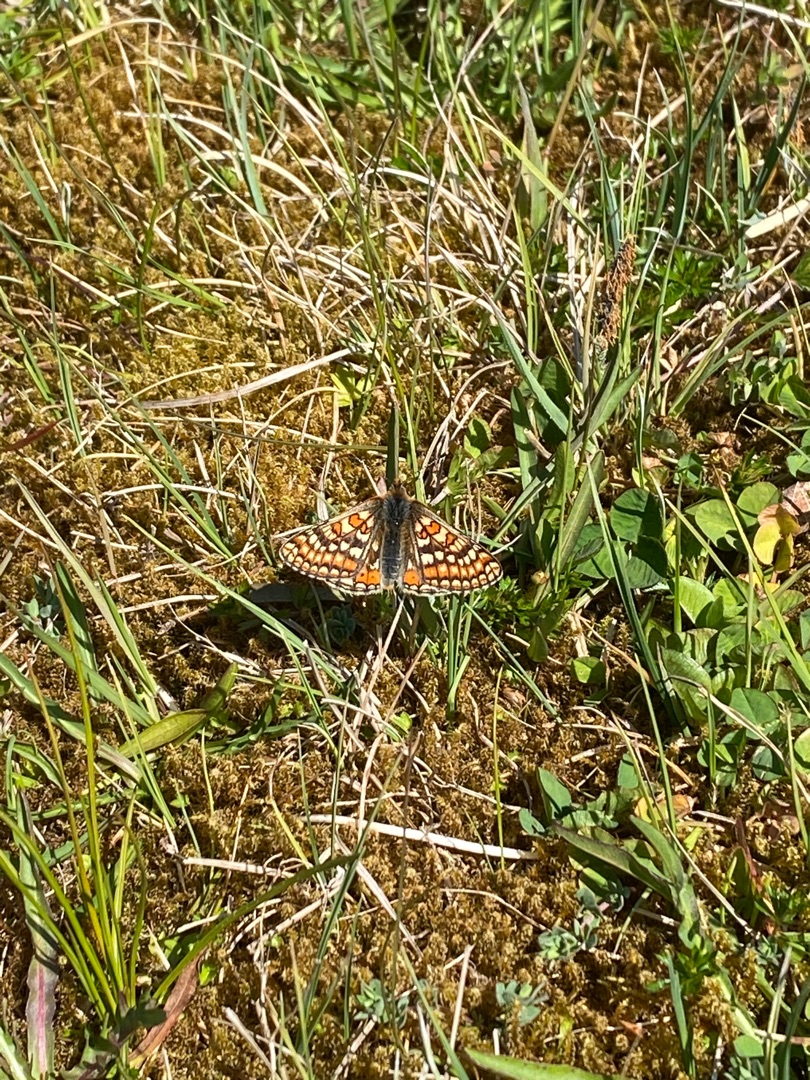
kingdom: Animalia
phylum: Arthropoda
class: Insecta
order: Lepidoptera
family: Nymphalidae
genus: Euphydryas
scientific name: Euphydryas aurinia
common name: Hedepletvinge
